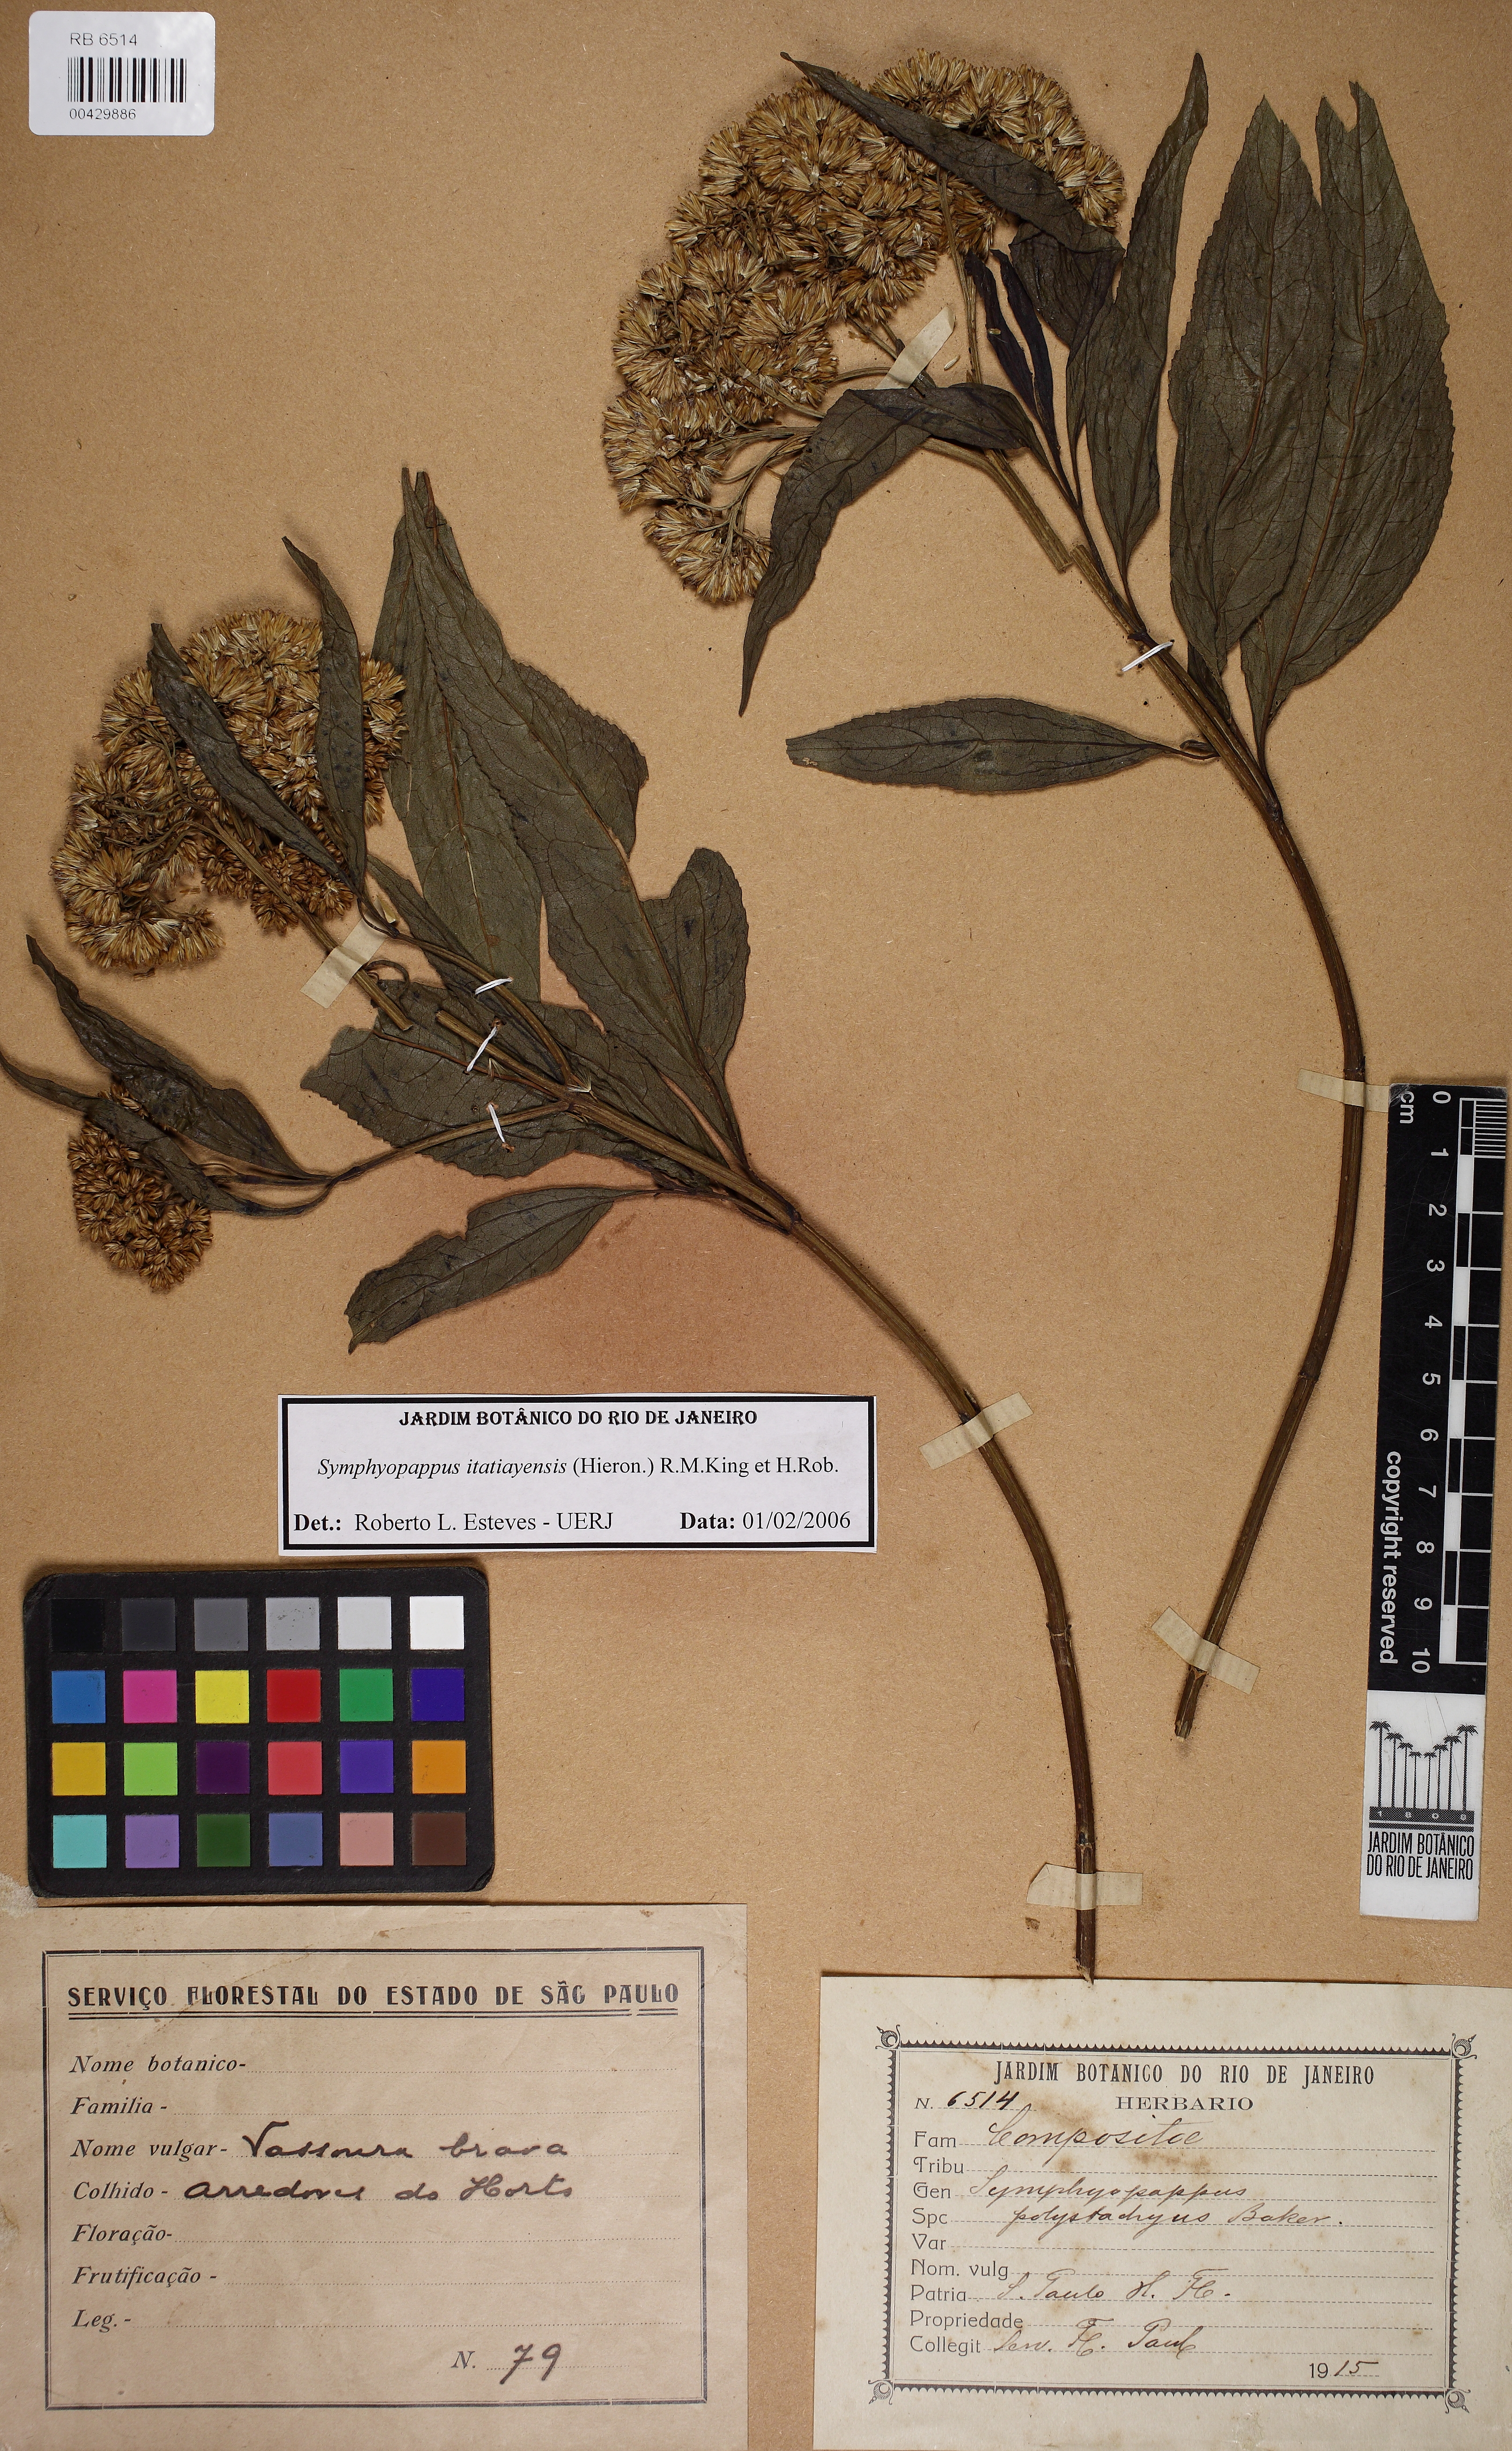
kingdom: Plantae
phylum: Tracheophyta
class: Magnoliopsida
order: Asterales
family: Asteraceae
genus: Symphyopappus
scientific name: Symphyopappus itatiayensis
